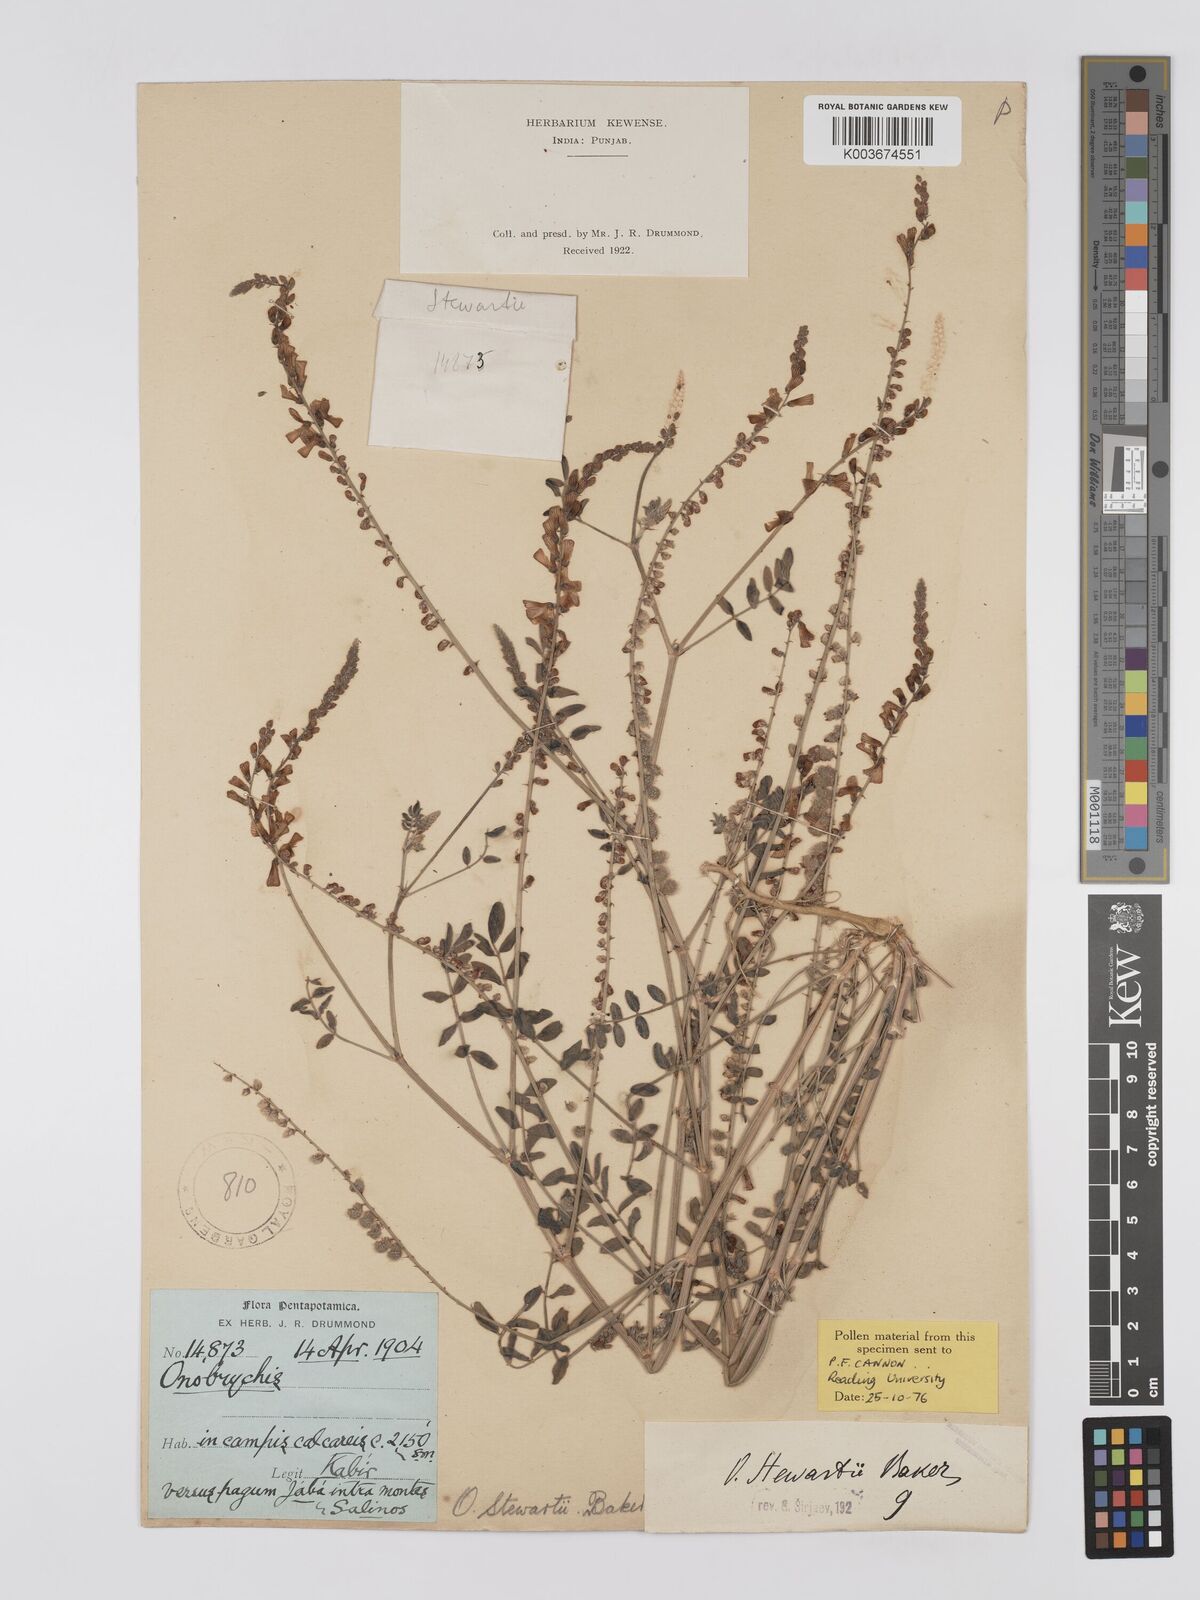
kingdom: Plantae
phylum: Tracheophyta
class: Magnoliopsida
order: Fabales
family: Fabaceae
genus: Onobrychis
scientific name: Onobrychis stewartii
